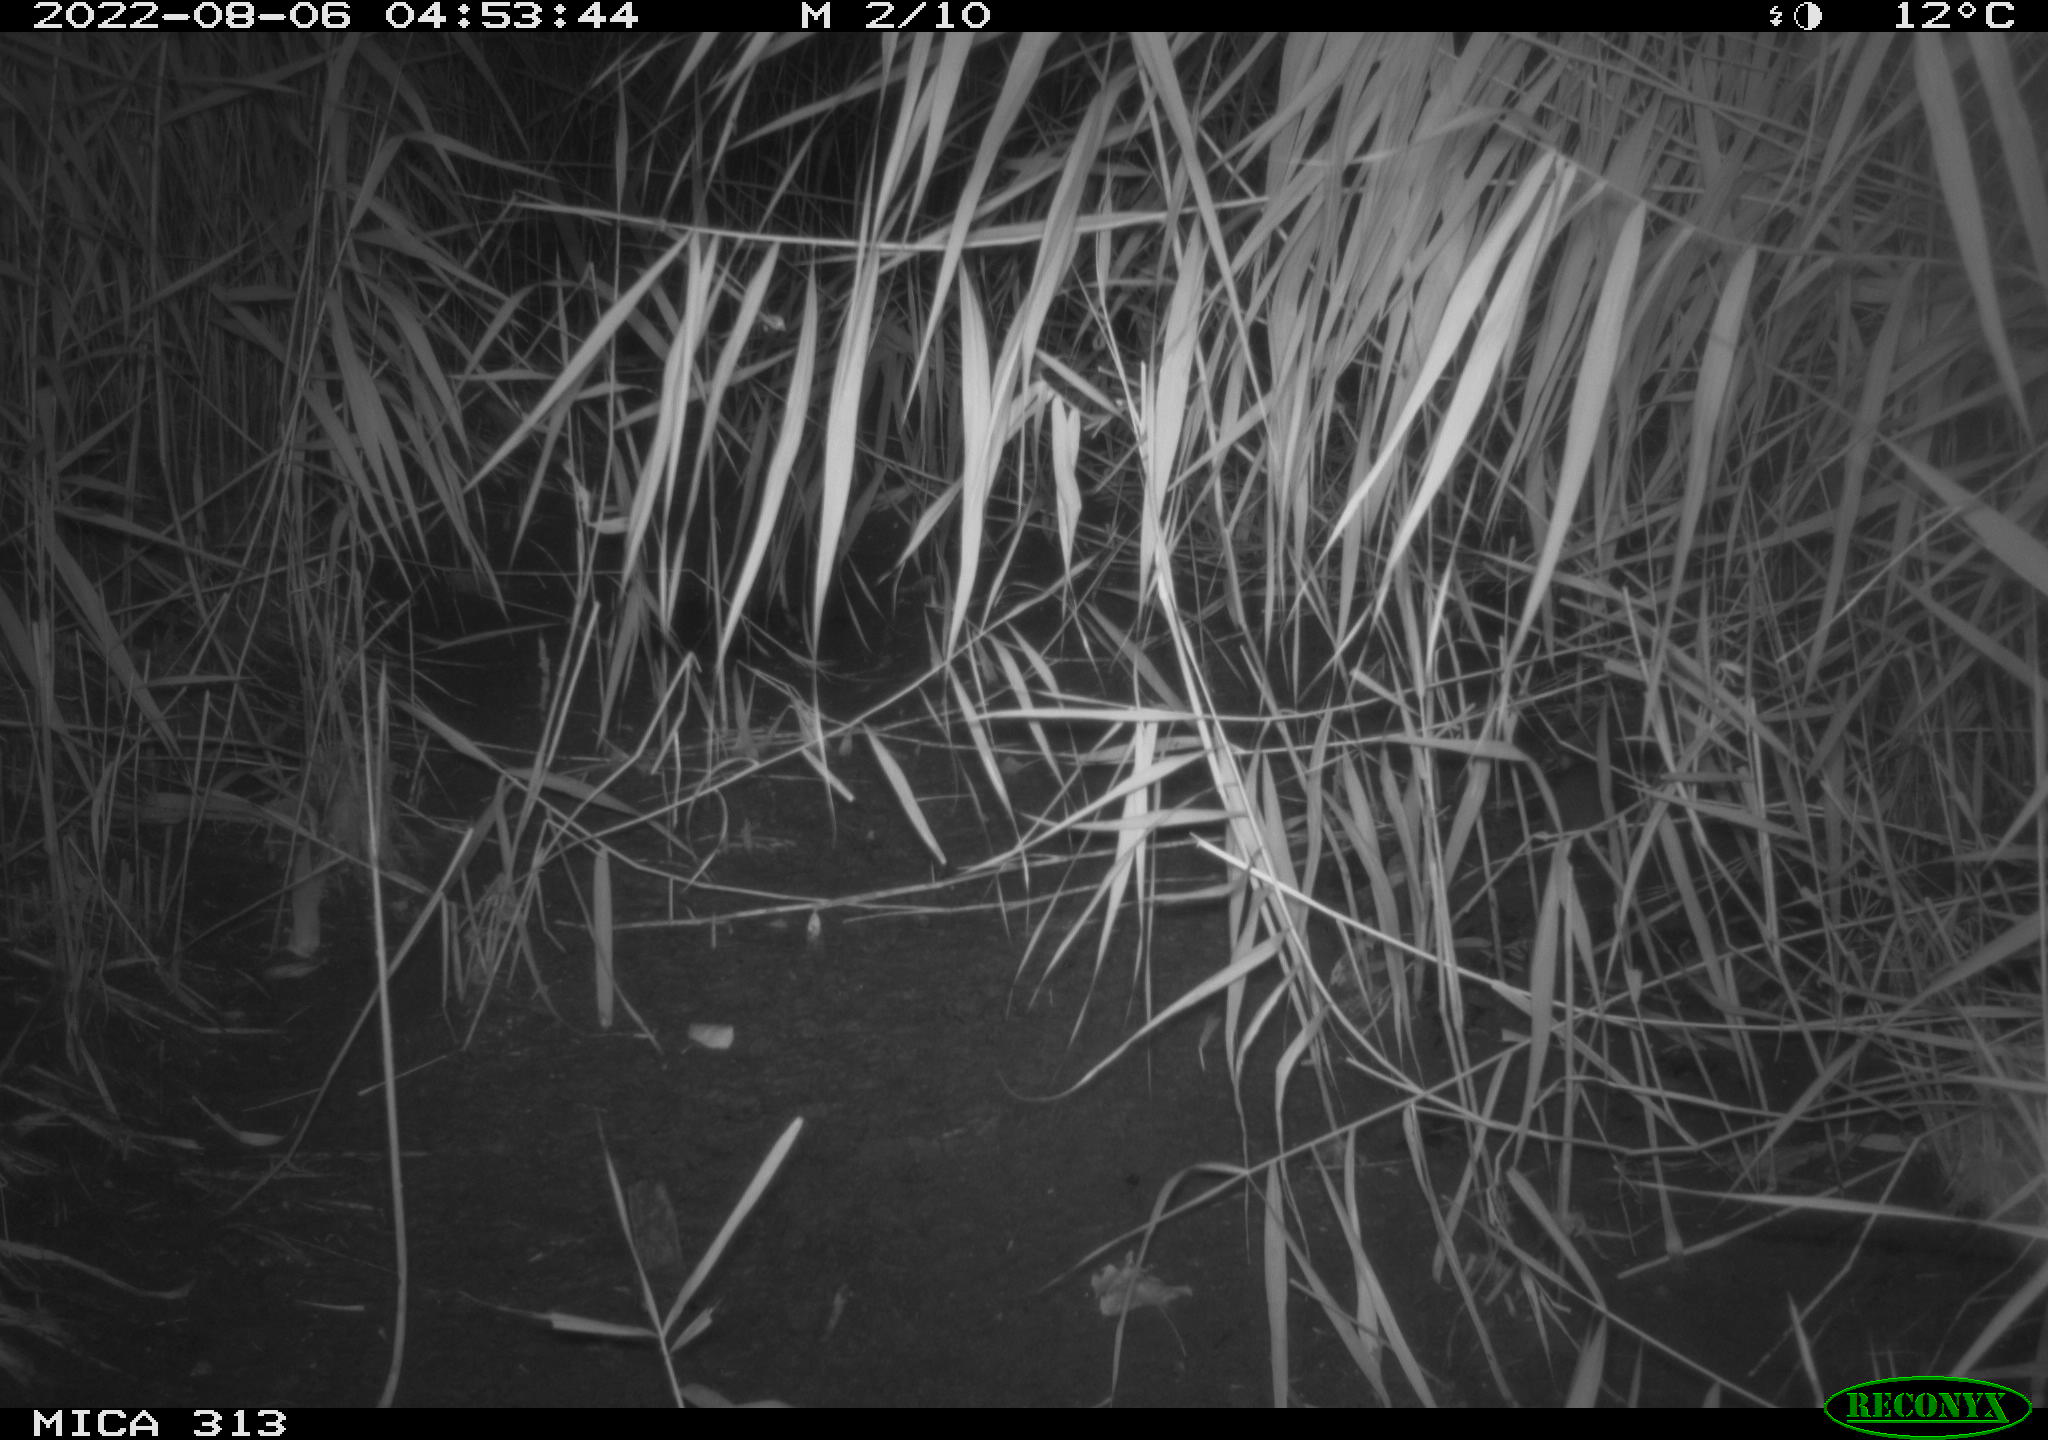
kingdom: Animalia
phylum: Chordata
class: Mammalia
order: Rodentia
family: Muridae
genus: Rattus
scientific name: Rattus norvegicus
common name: Brown rat
